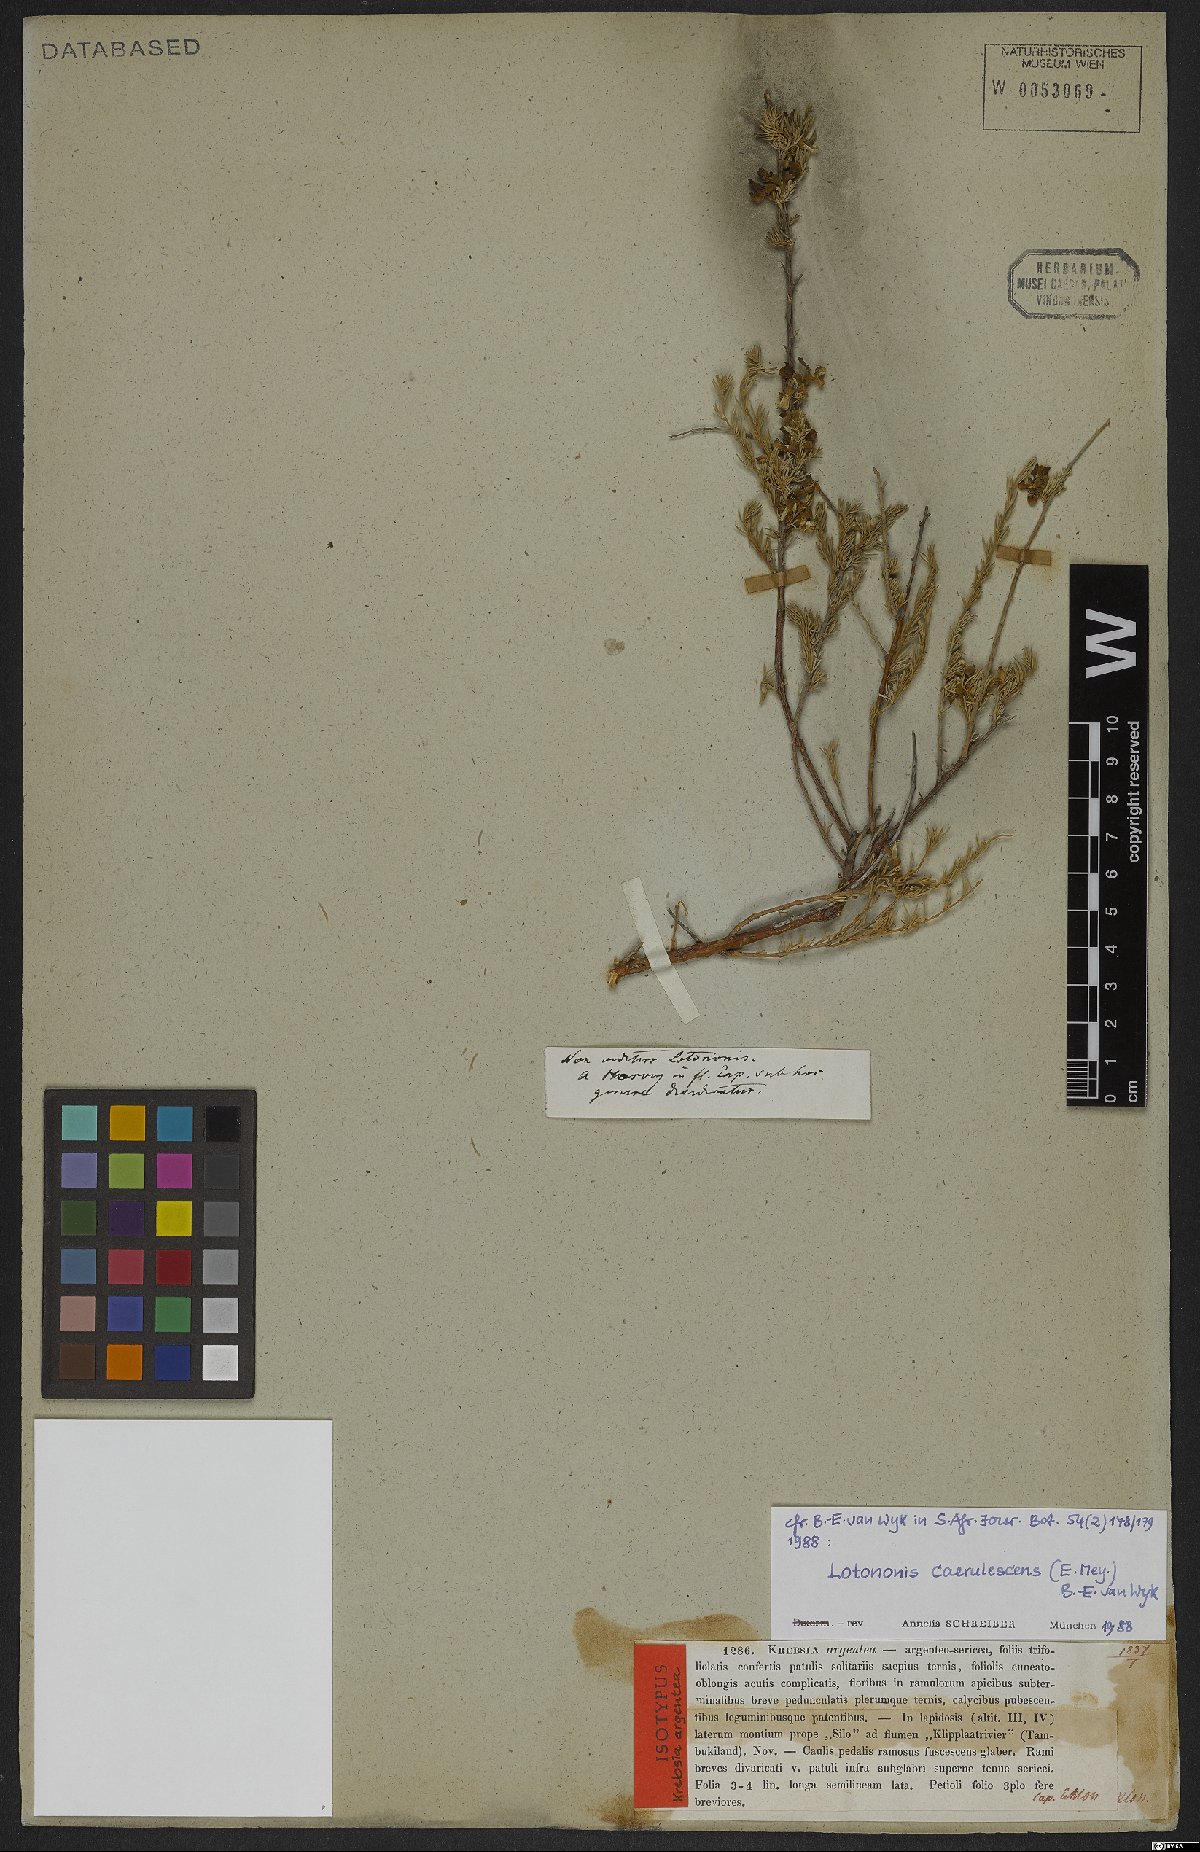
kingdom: Plantae
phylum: Tracheophyta
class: Magnoliopsida
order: Fabales
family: Fabaceae
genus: Lotononis
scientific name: Lotononis caerulescens
